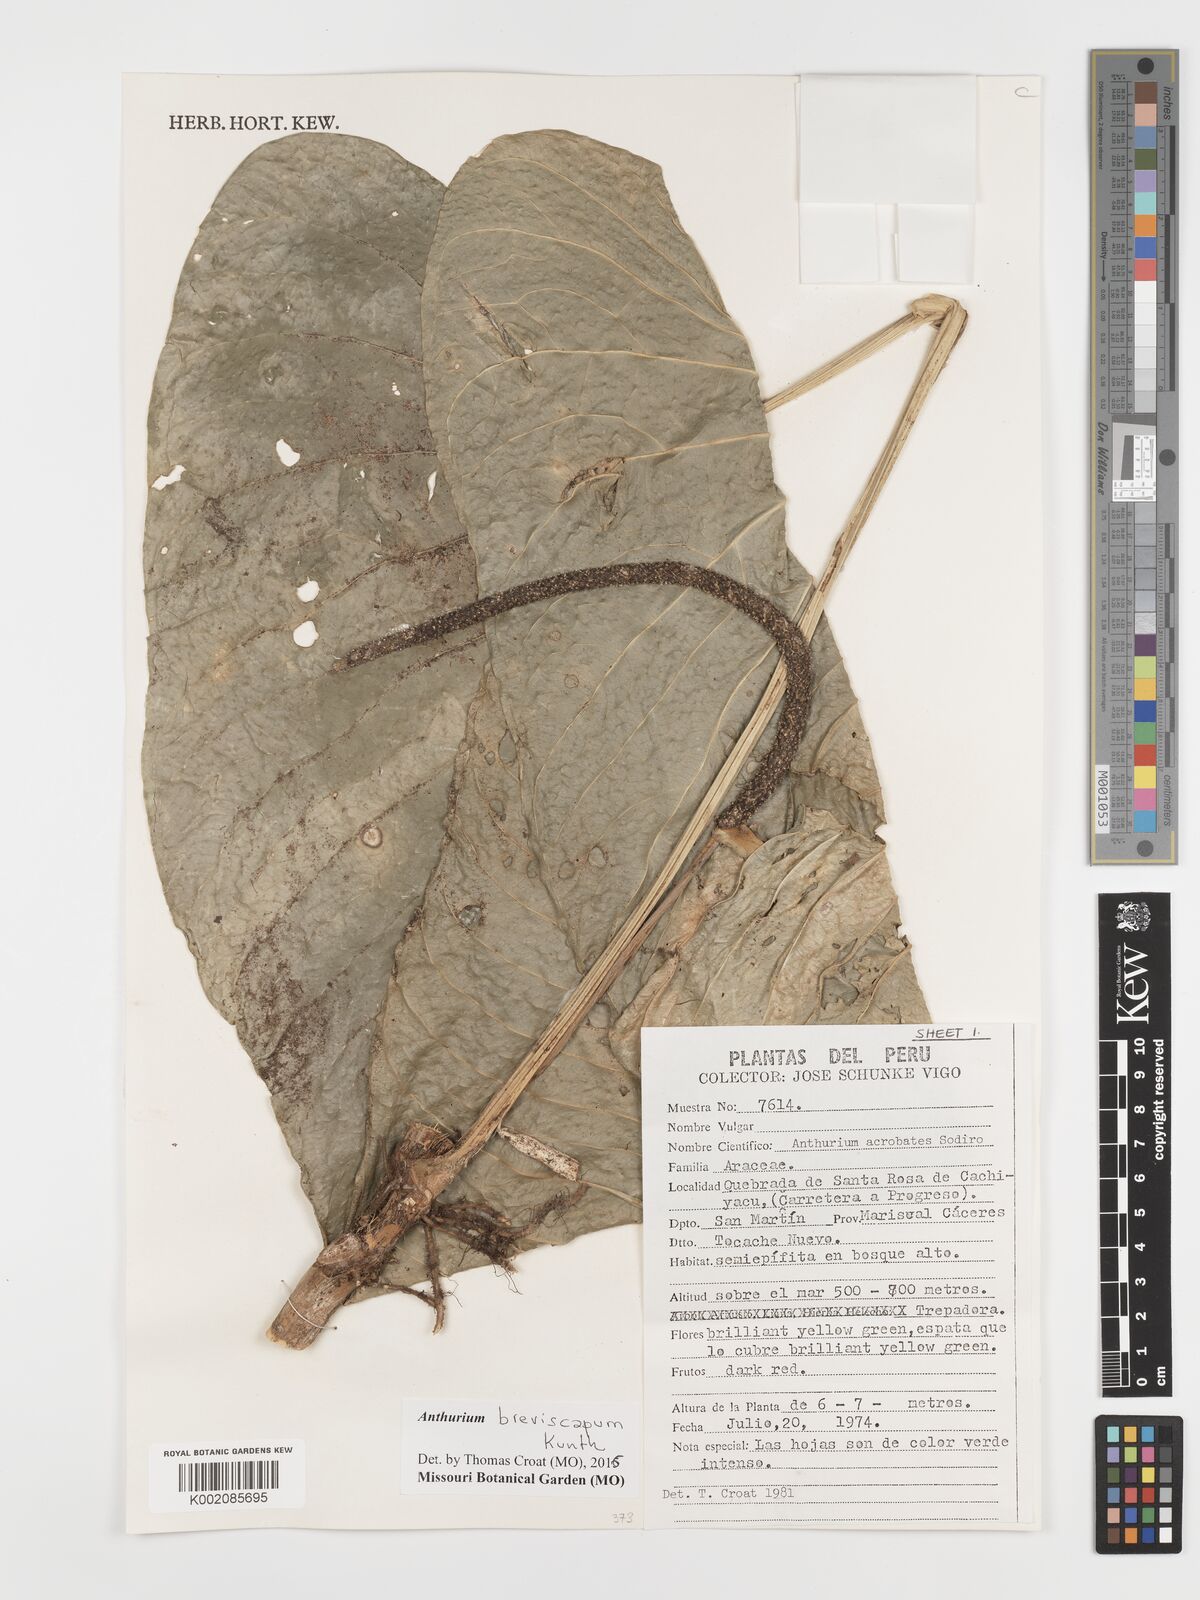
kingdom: Plantae
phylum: Tracheophyta
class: Liliopsida
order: Alismatales
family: Araceae
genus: Anthurium
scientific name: Anthurium breviscapum
